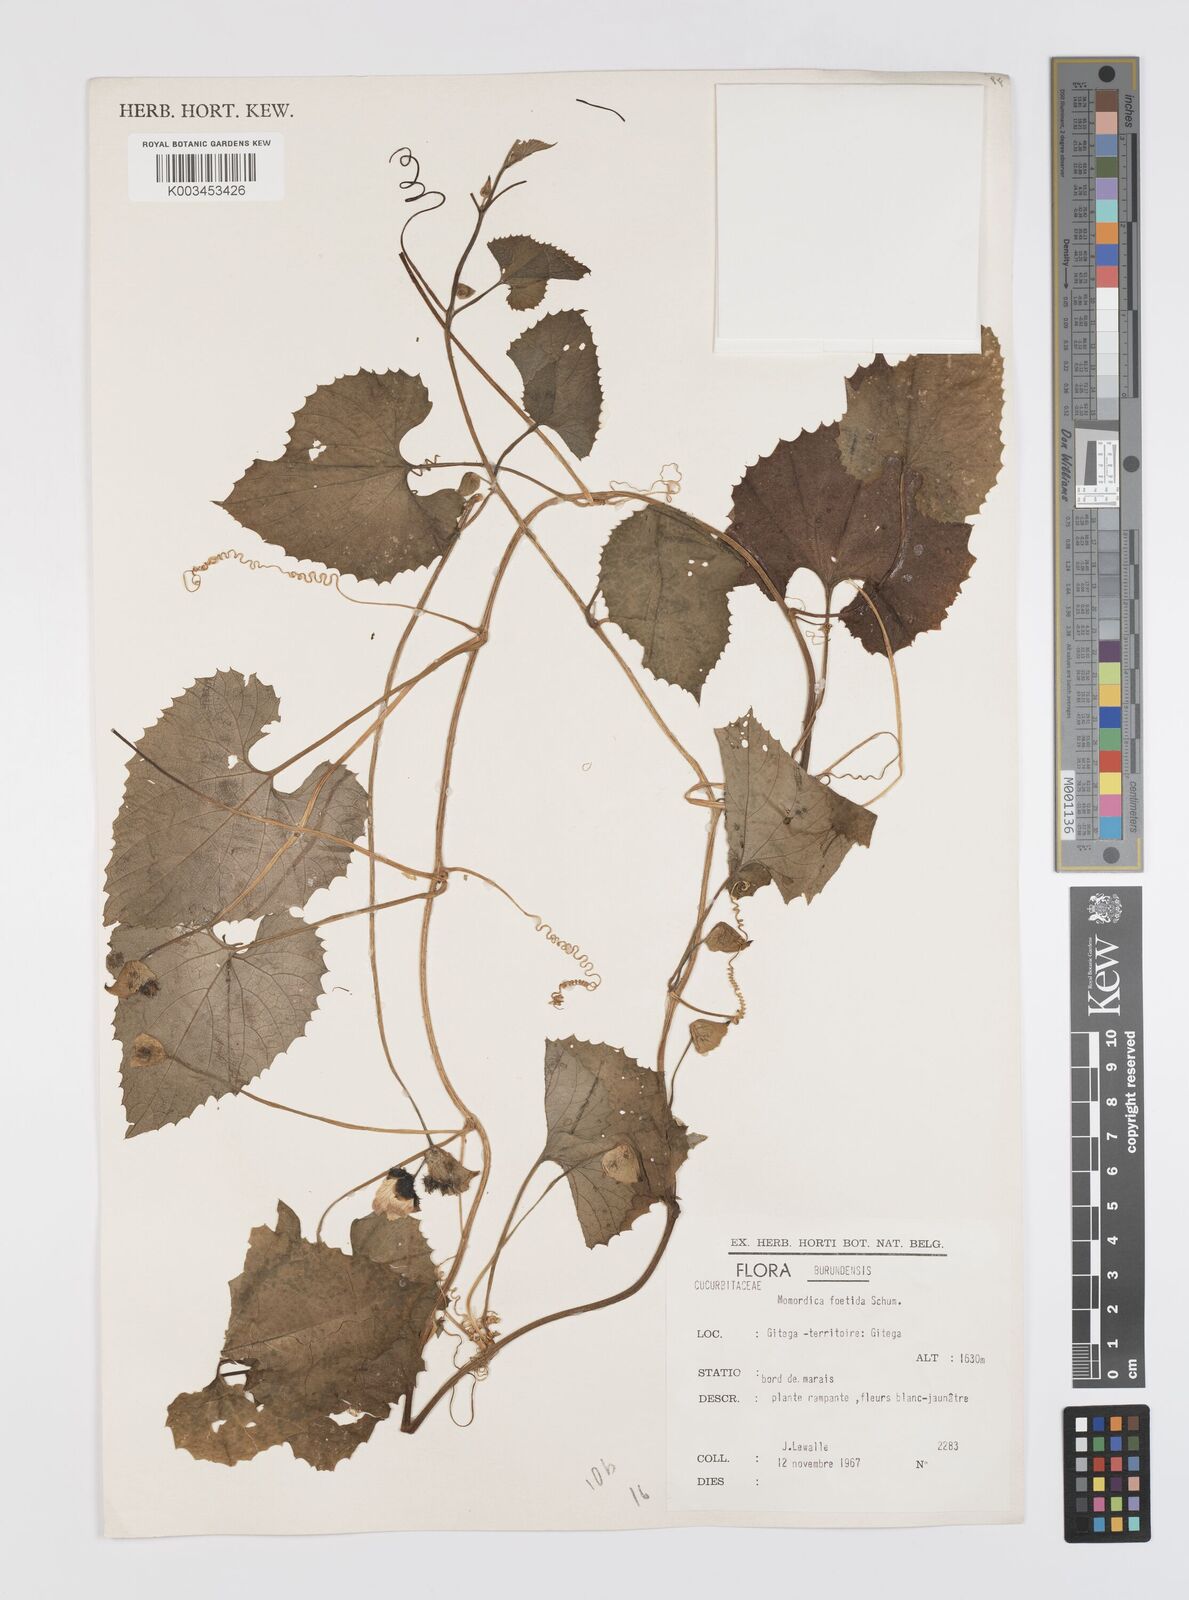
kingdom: Plantae
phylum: Tracheophyta
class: Magnoliopsida
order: Cucurbitales
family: Cucurbitaceae
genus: Momordica
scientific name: Momordica foetida
